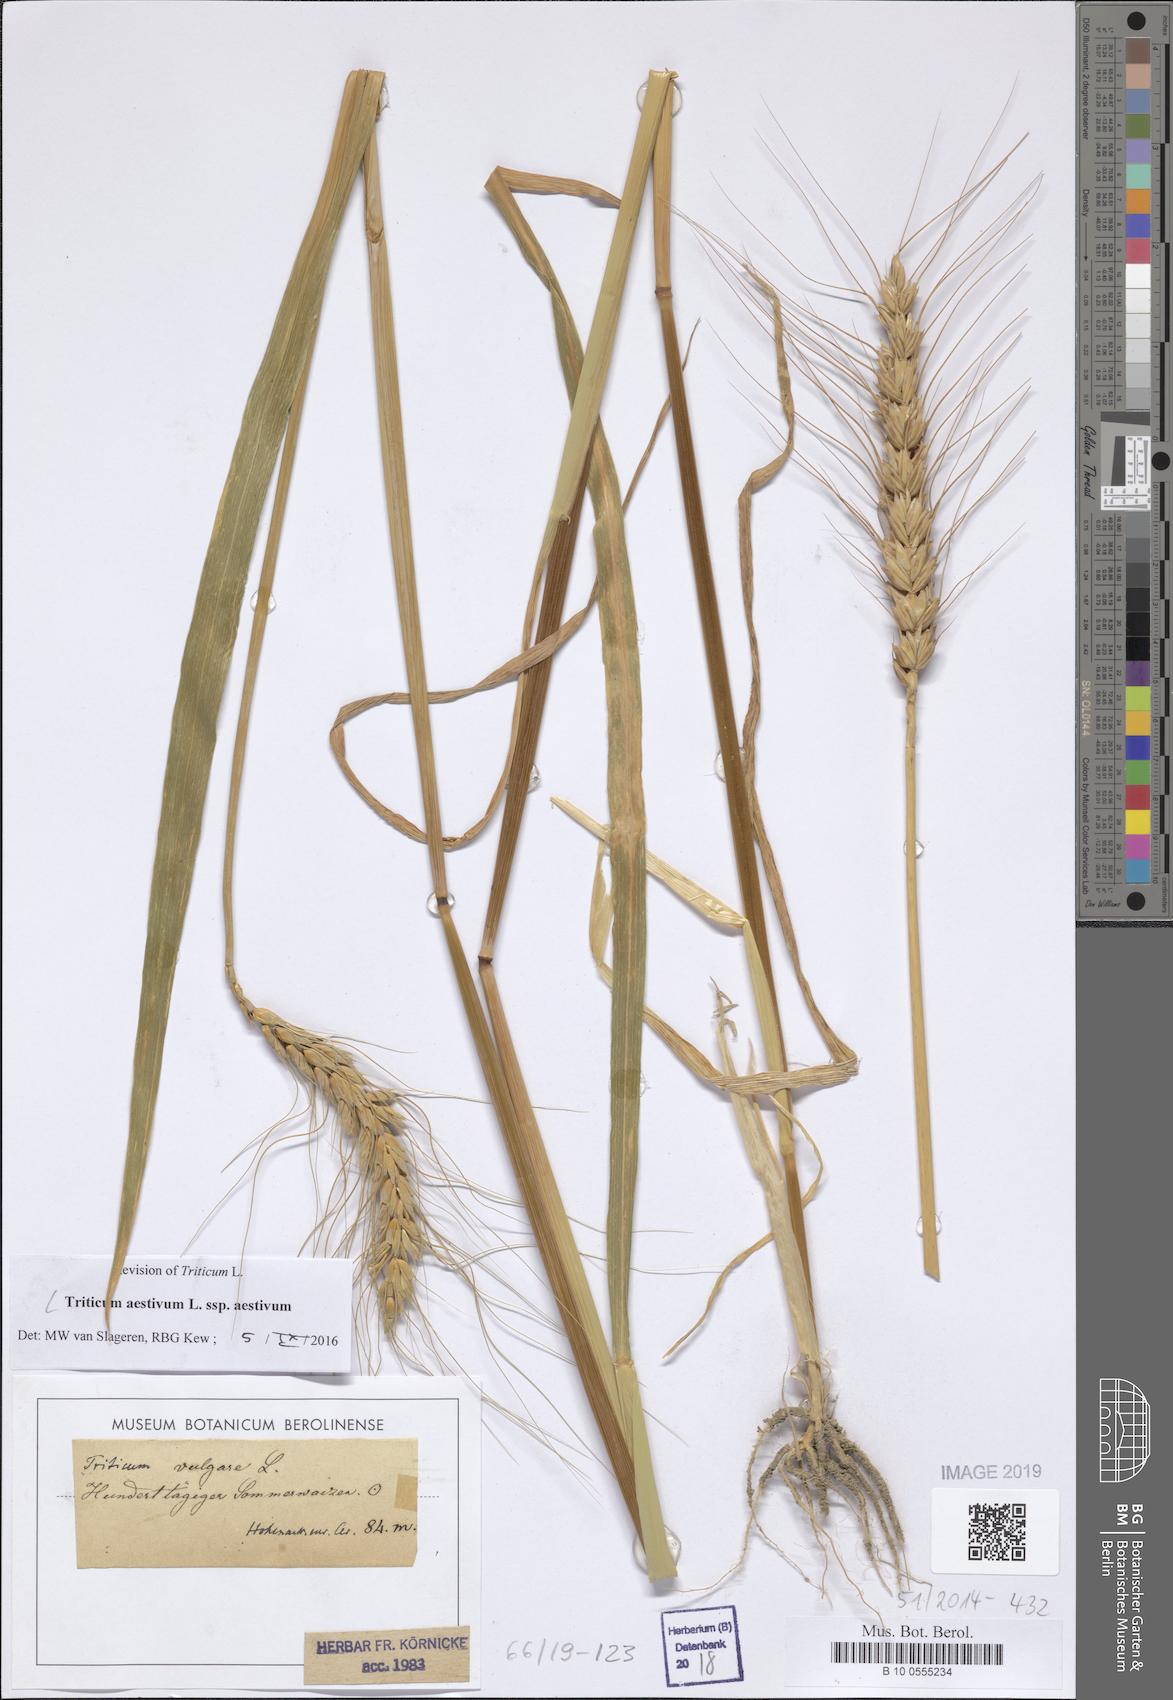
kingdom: Plantae
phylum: Tracheophyta
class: Liliopsida
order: Poales
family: Poaceae
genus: Triticum
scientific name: Triticum aestivum
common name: Common wheat
